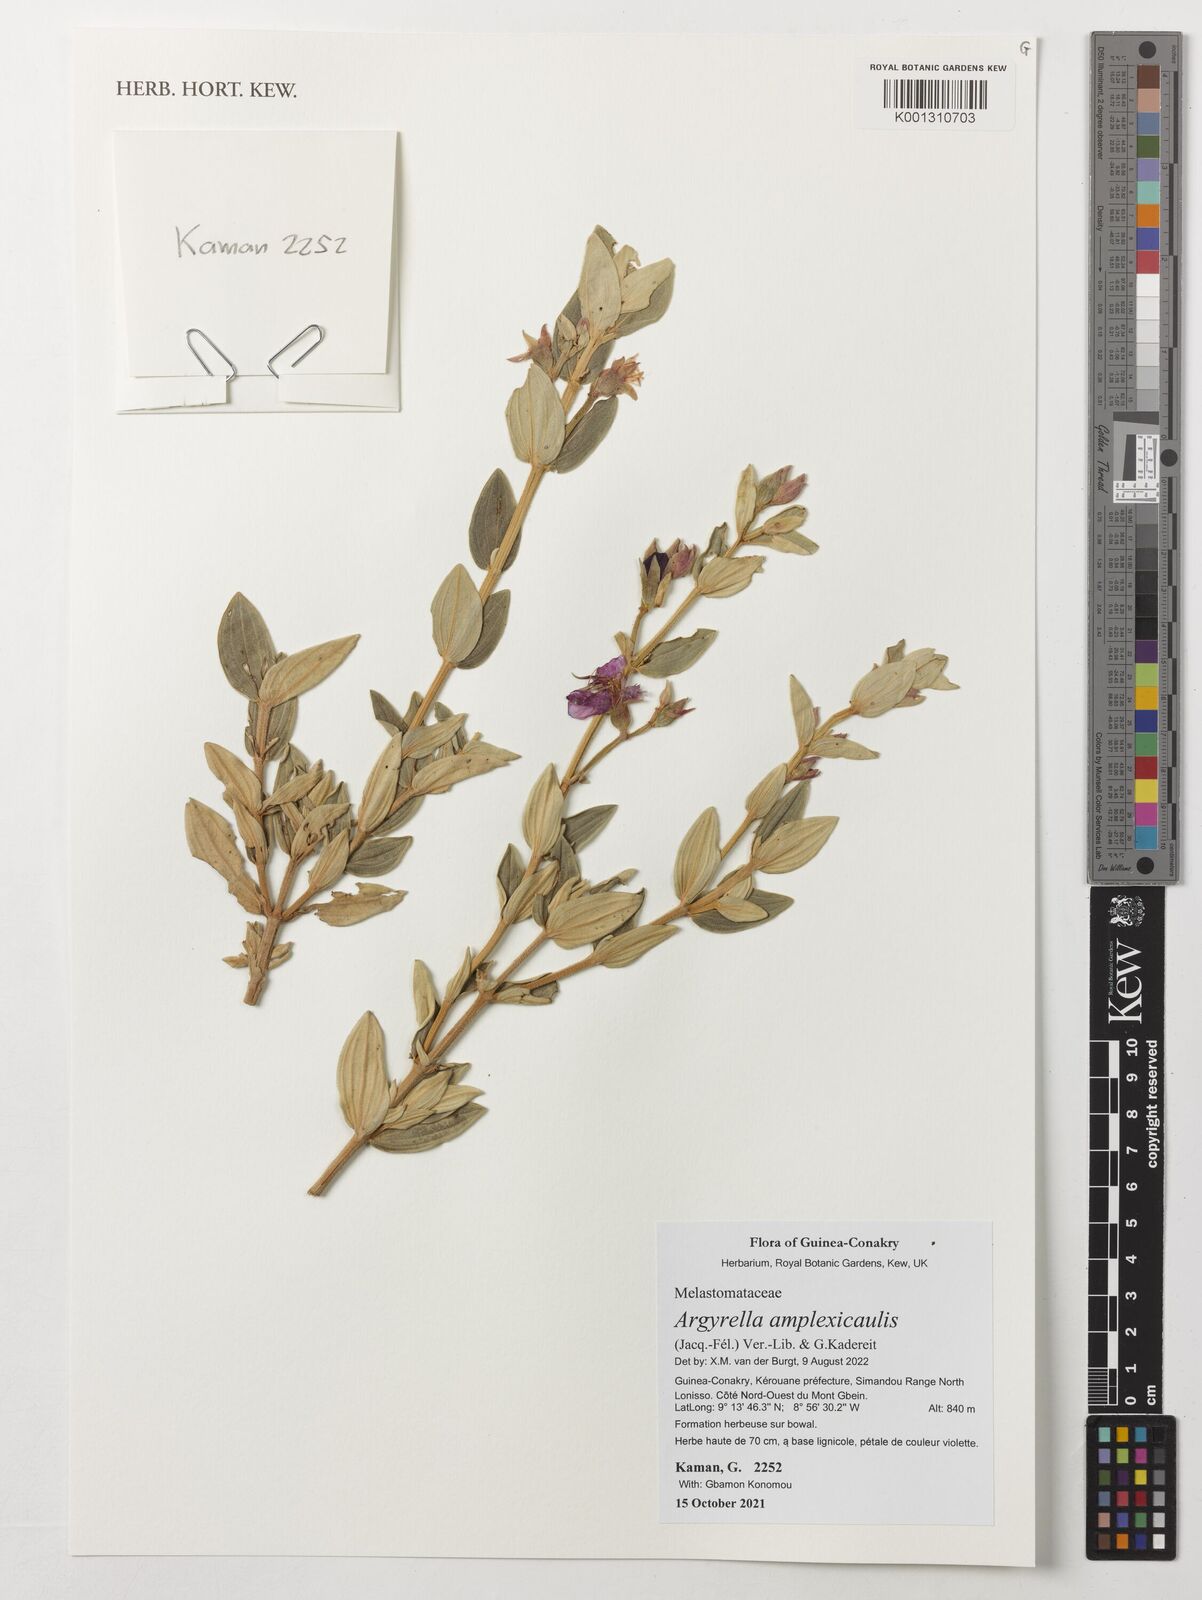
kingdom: Plantae
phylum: Tracheophyta
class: Magnoliopsida
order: Myrtales
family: Melastomataceae
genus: Argyrella
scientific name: Argyrella amplexicaulis
